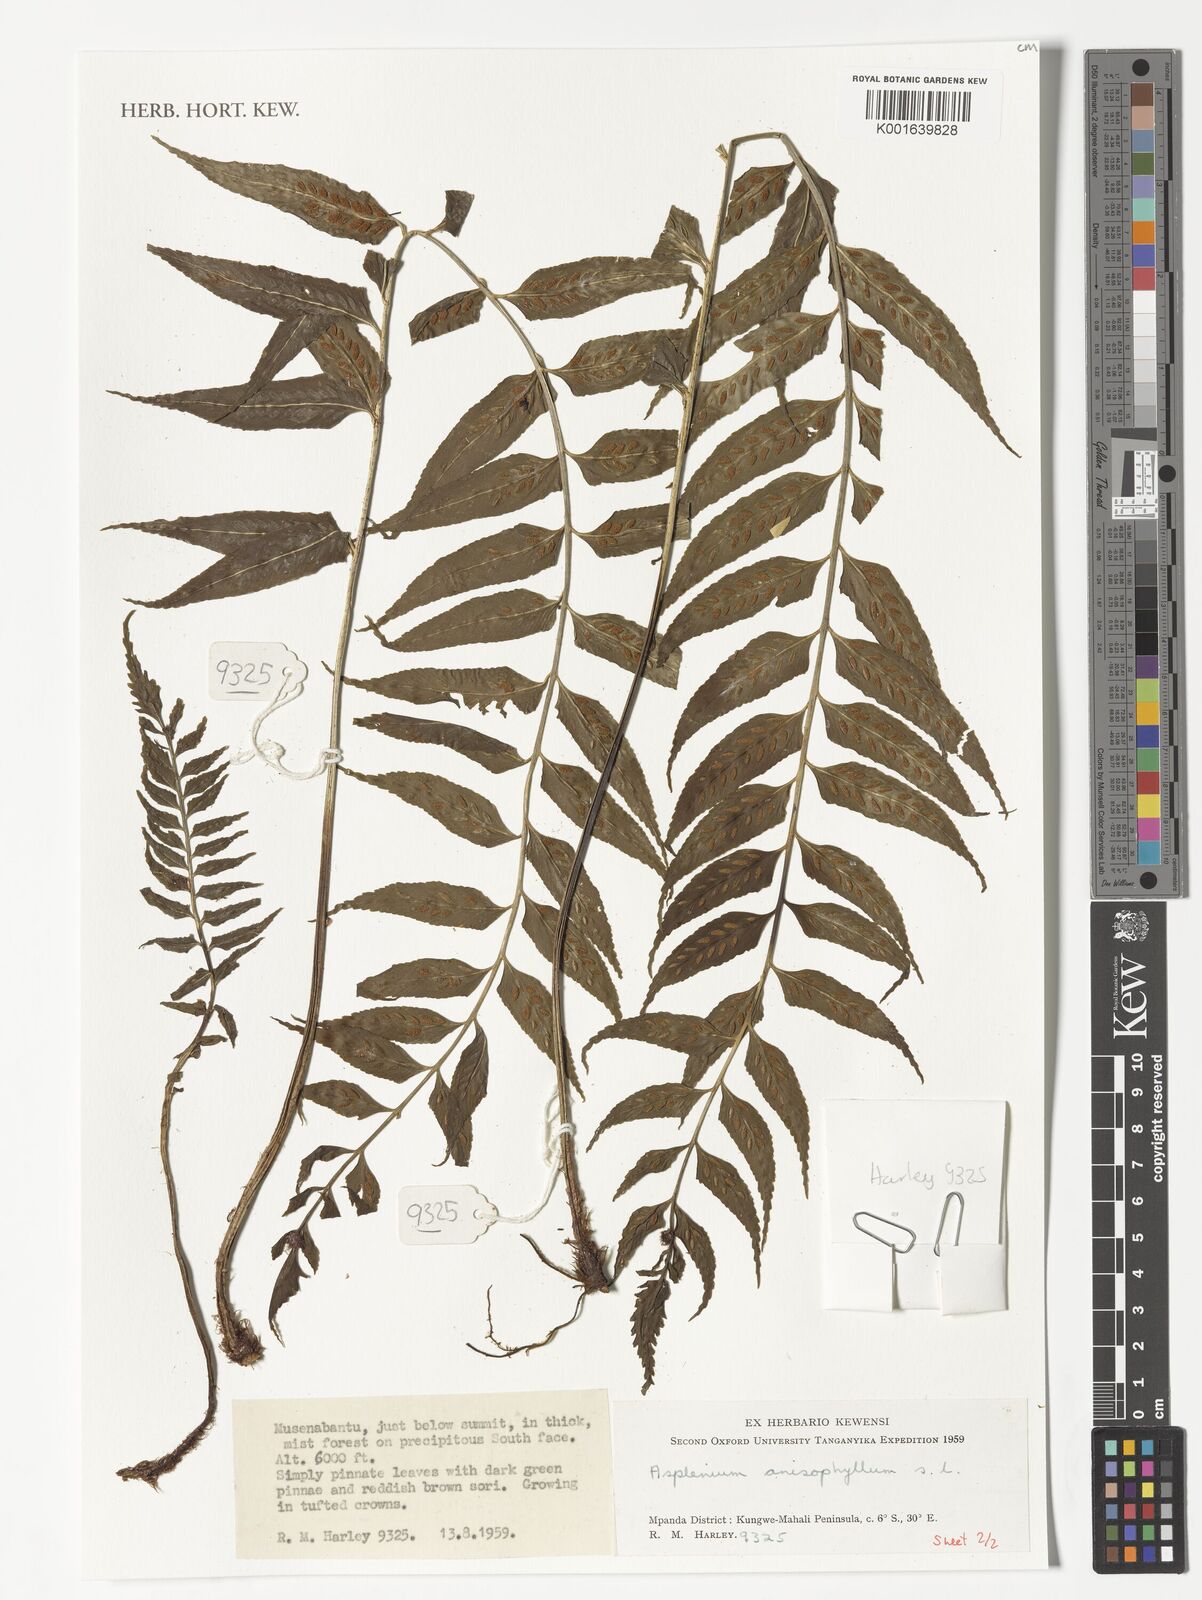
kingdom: Plantae
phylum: Tracheophyta
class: Polypodiopsida
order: Polypodiales
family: Aspleniaceae
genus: Asplenium
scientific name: Asplenium anisophyllum
